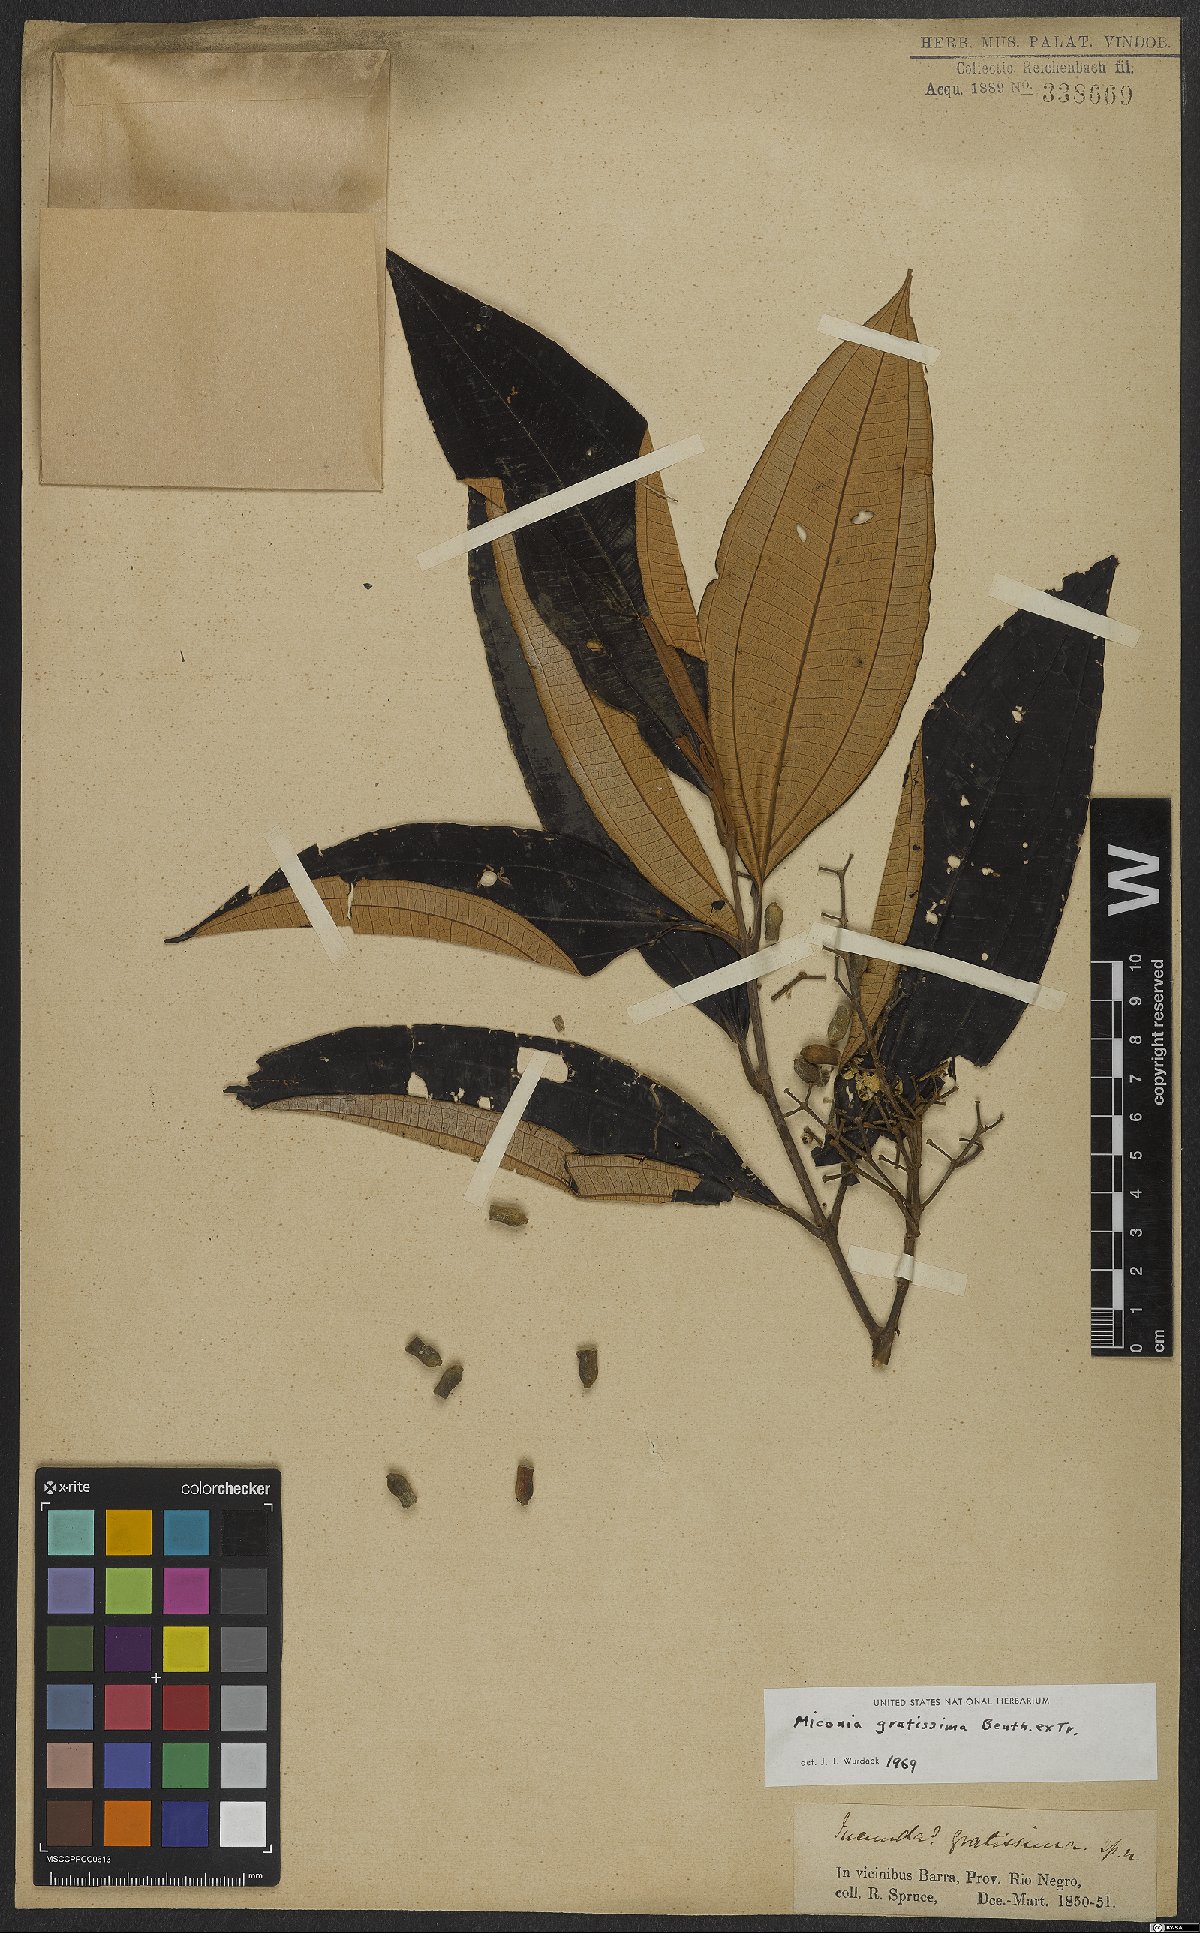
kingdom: Plantae
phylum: Tracheophyta
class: Magnoliopsida
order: Myrtales
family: Melastomataceae
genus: Miconia
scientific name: Miconia gratissima
